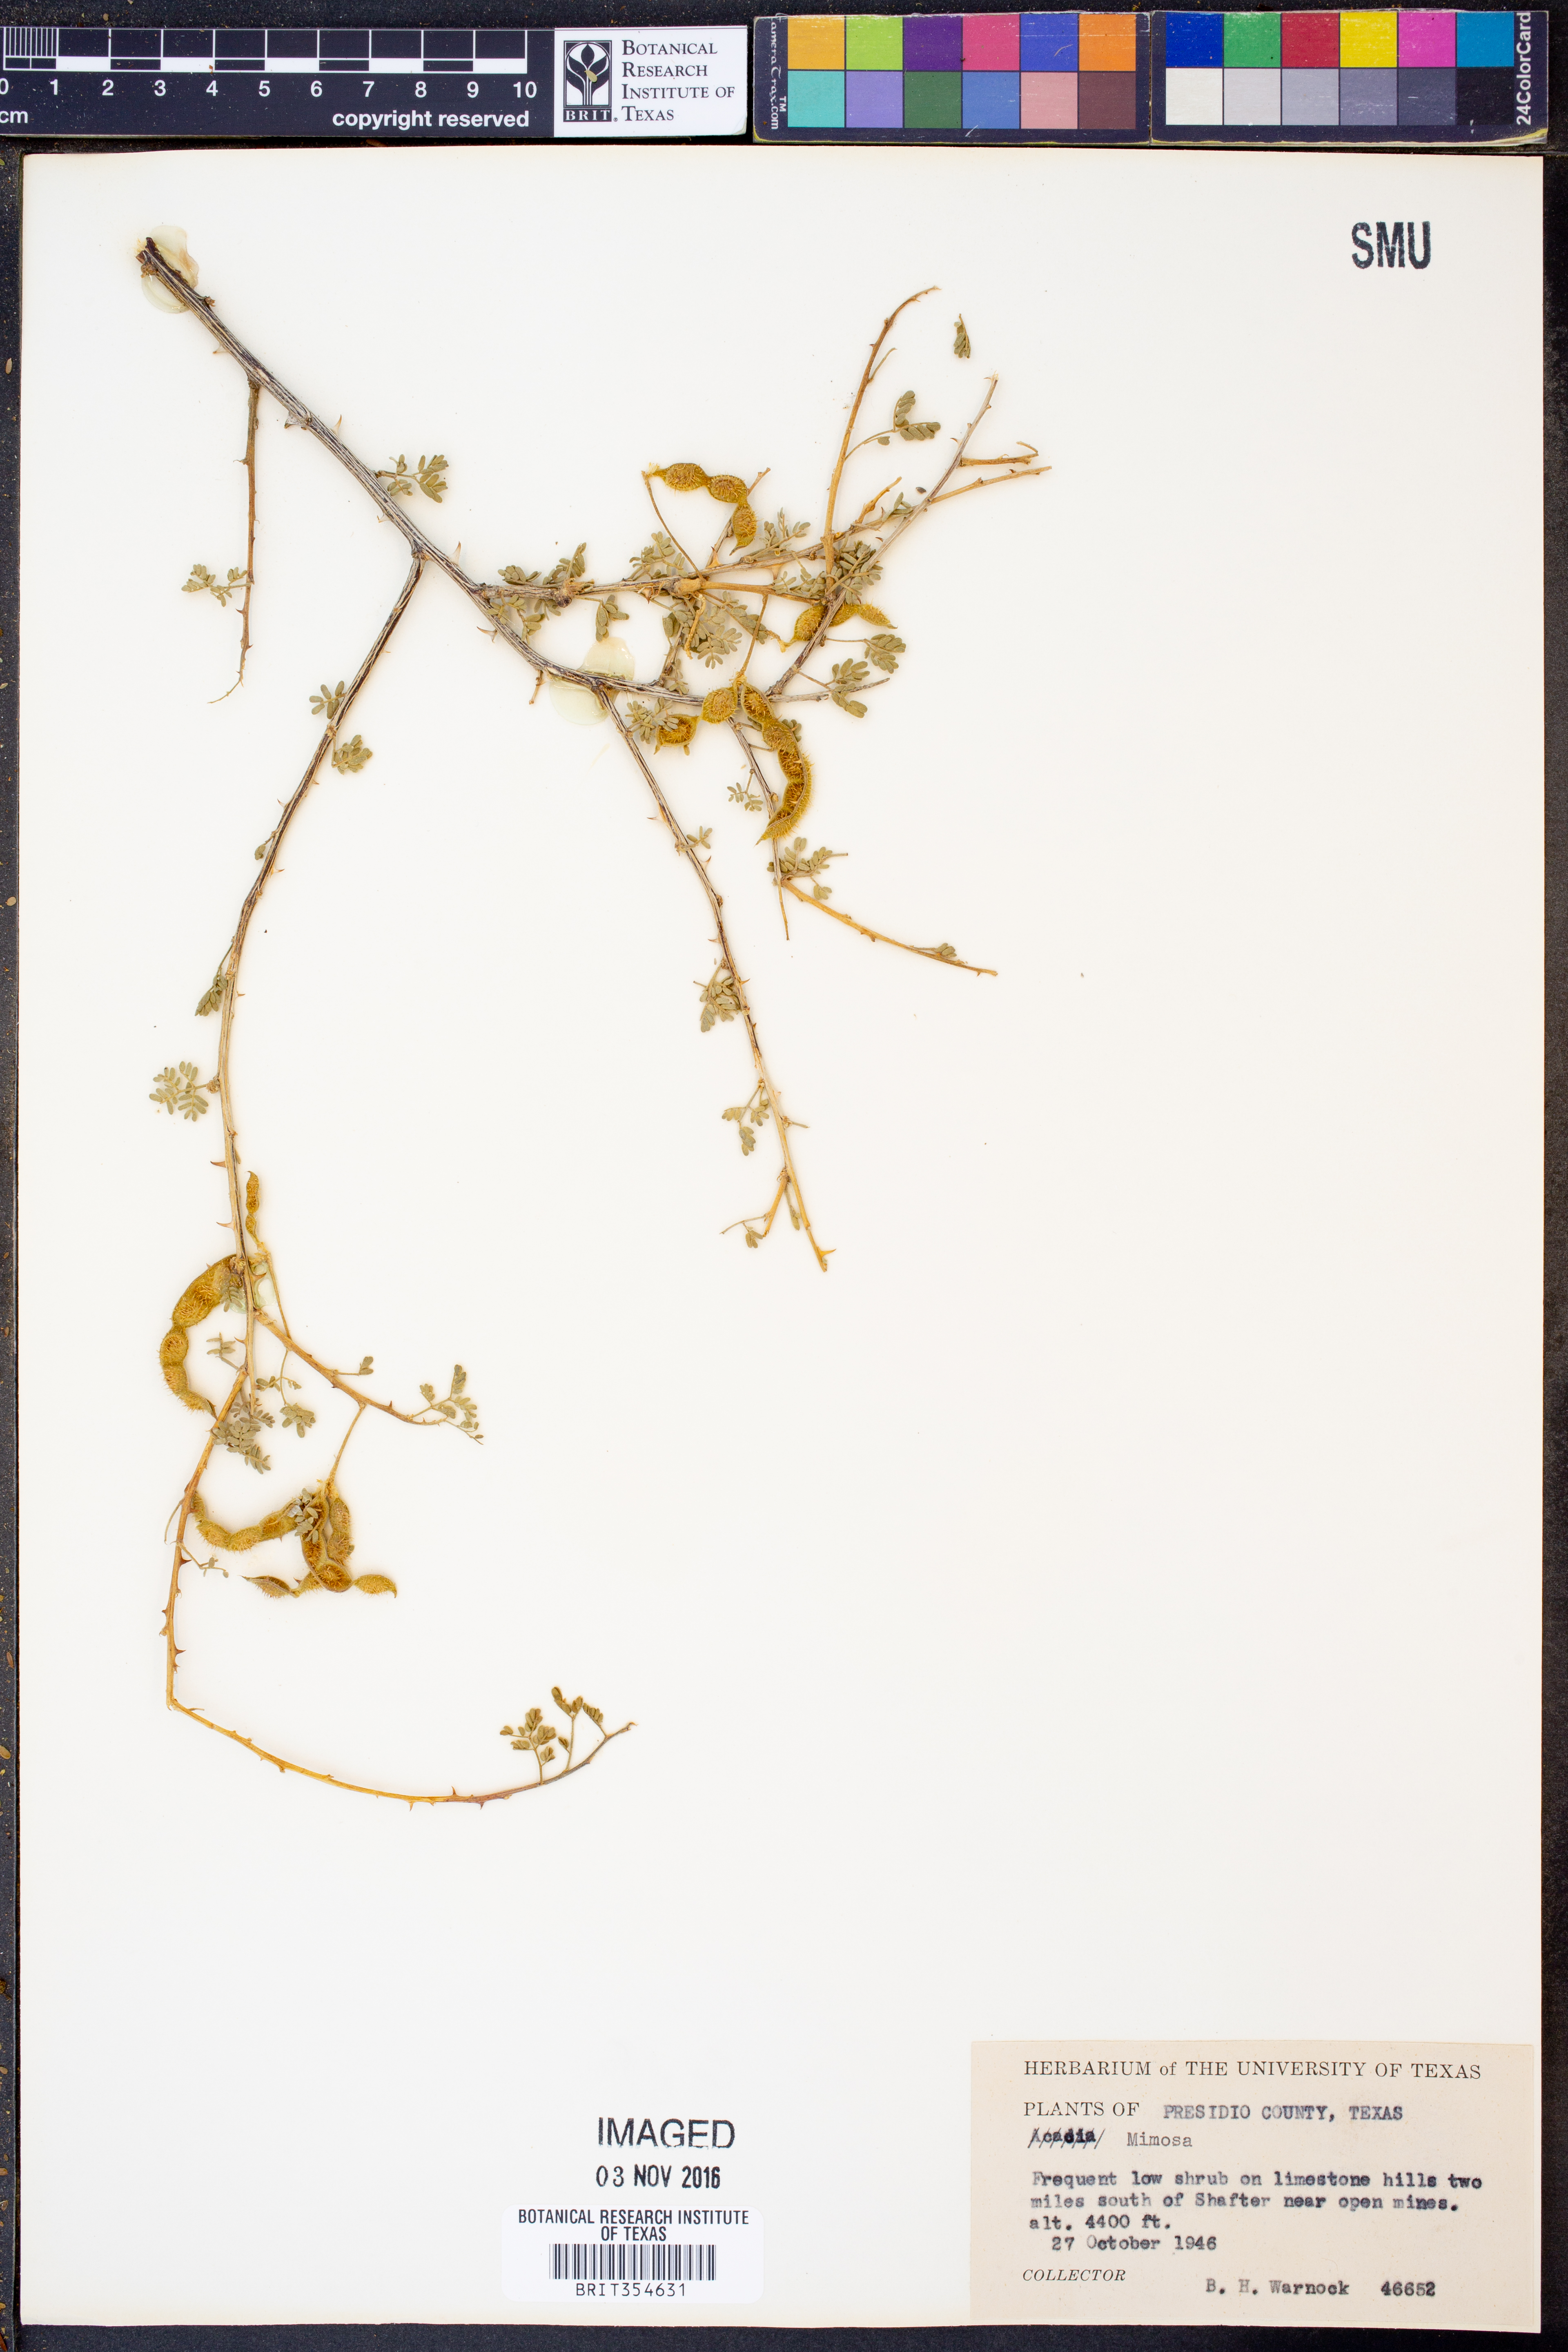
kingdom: Plantae
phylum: Tracheophyta
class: Magnoliopsida
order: Fabales
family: Fabaceae
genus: Mimosa
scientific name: Mimosa
